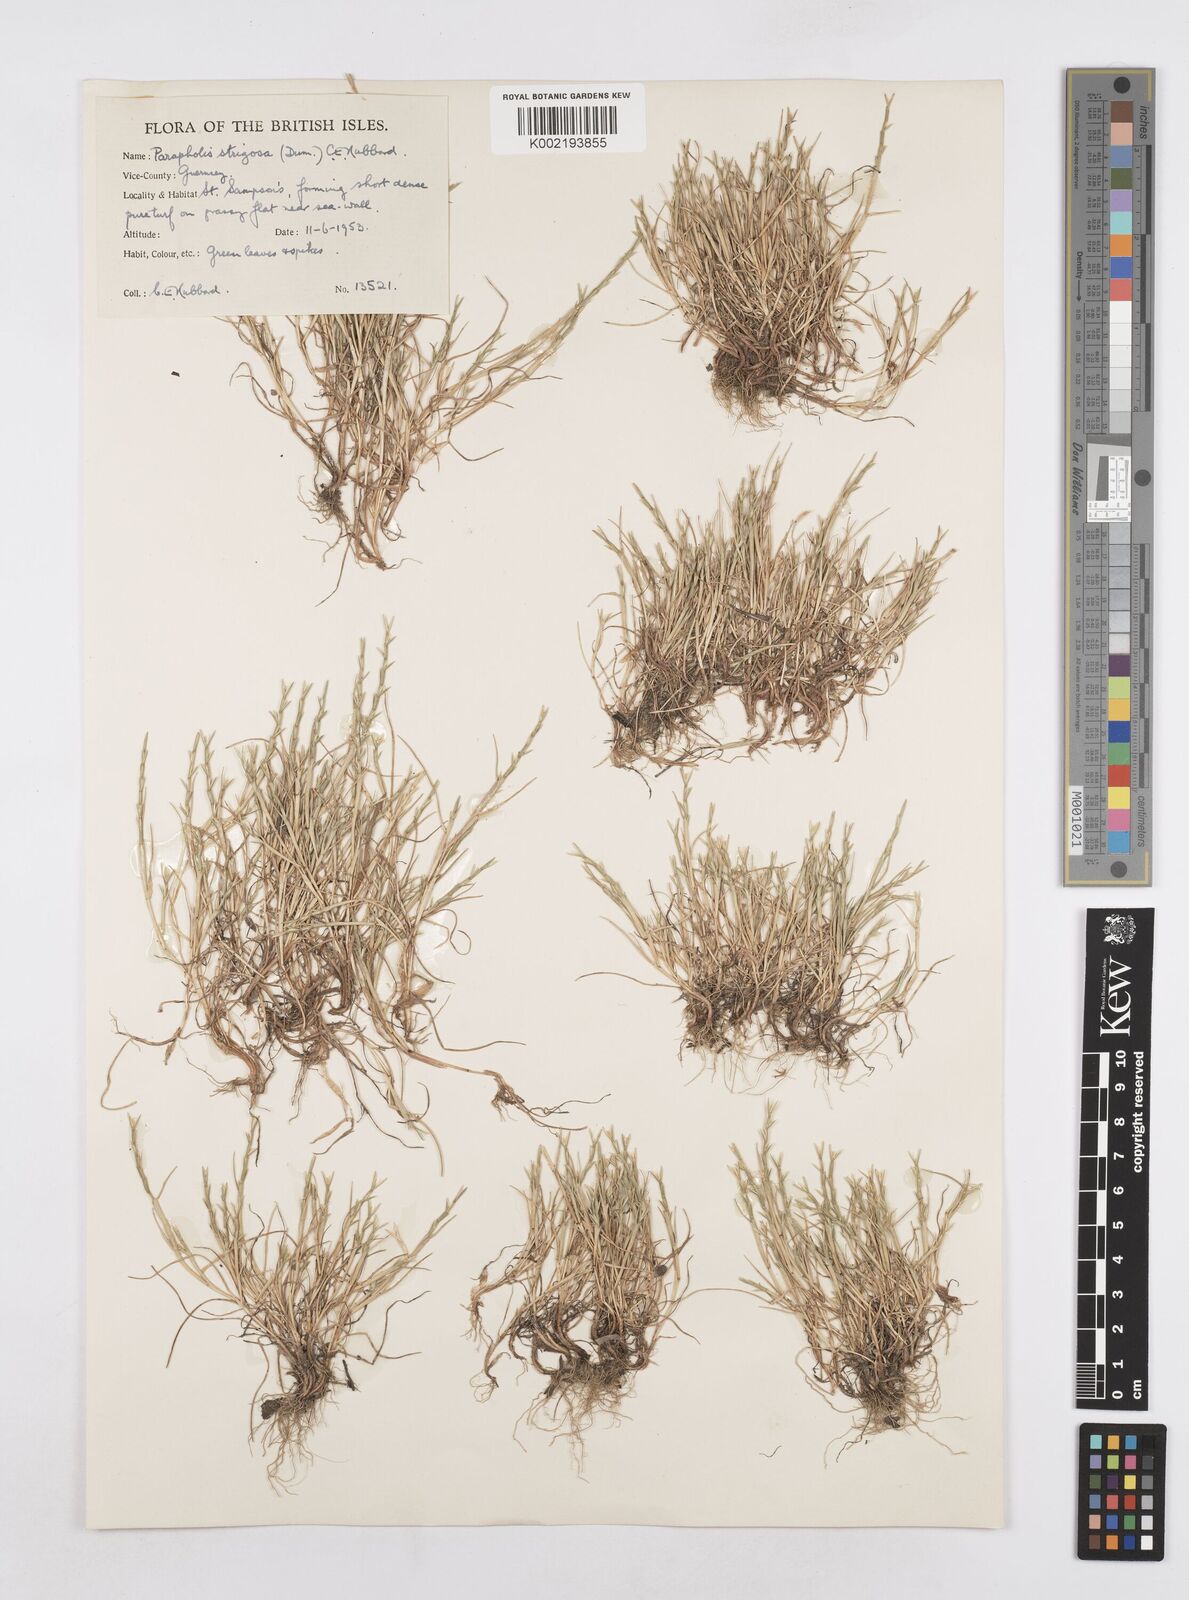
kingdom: Plantae
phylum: Tracheophyta
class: Liliopsida
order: Poales
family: Poaceae
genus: Parapholis
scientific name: Parapholis strigosa
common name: Hard-grass
